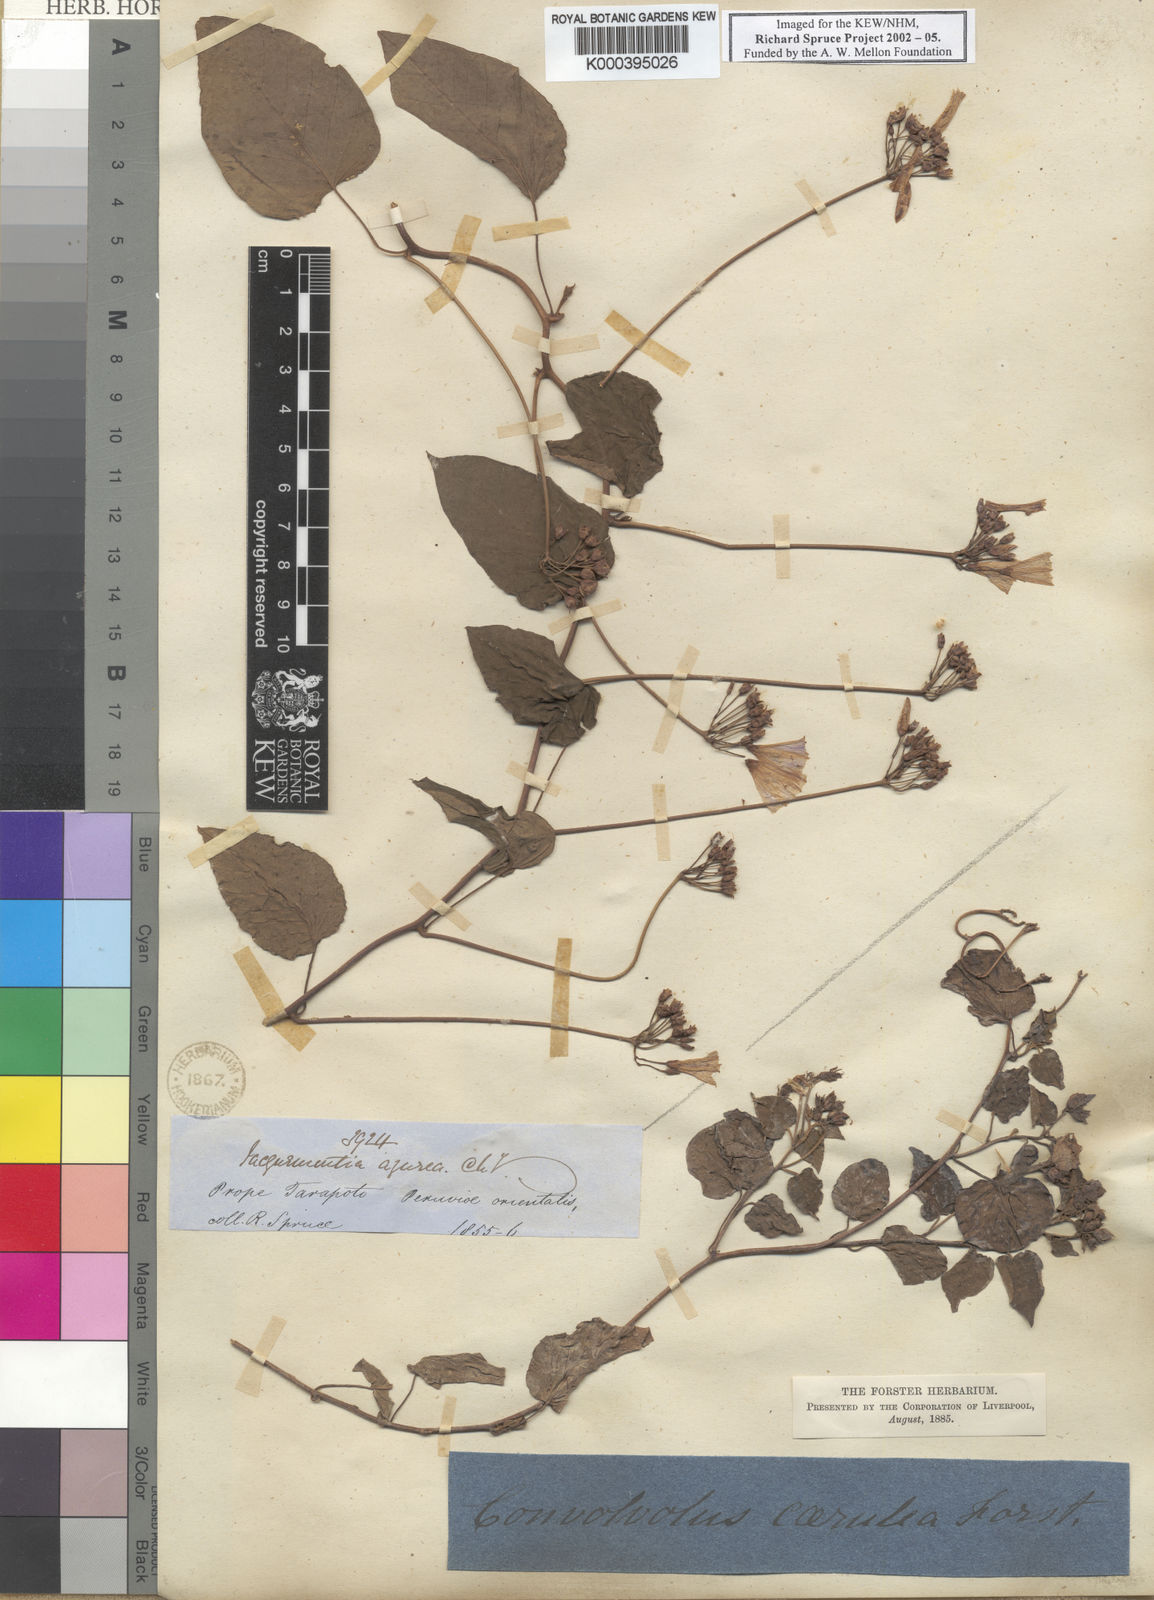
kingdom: Plantae
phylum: Tracheophyta
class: Magnoliopsida
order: Solanales
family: Convolvulaceae
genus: Jacquemontia
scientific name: Jacquemontia pentanthos
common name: Skyblue clustervine
